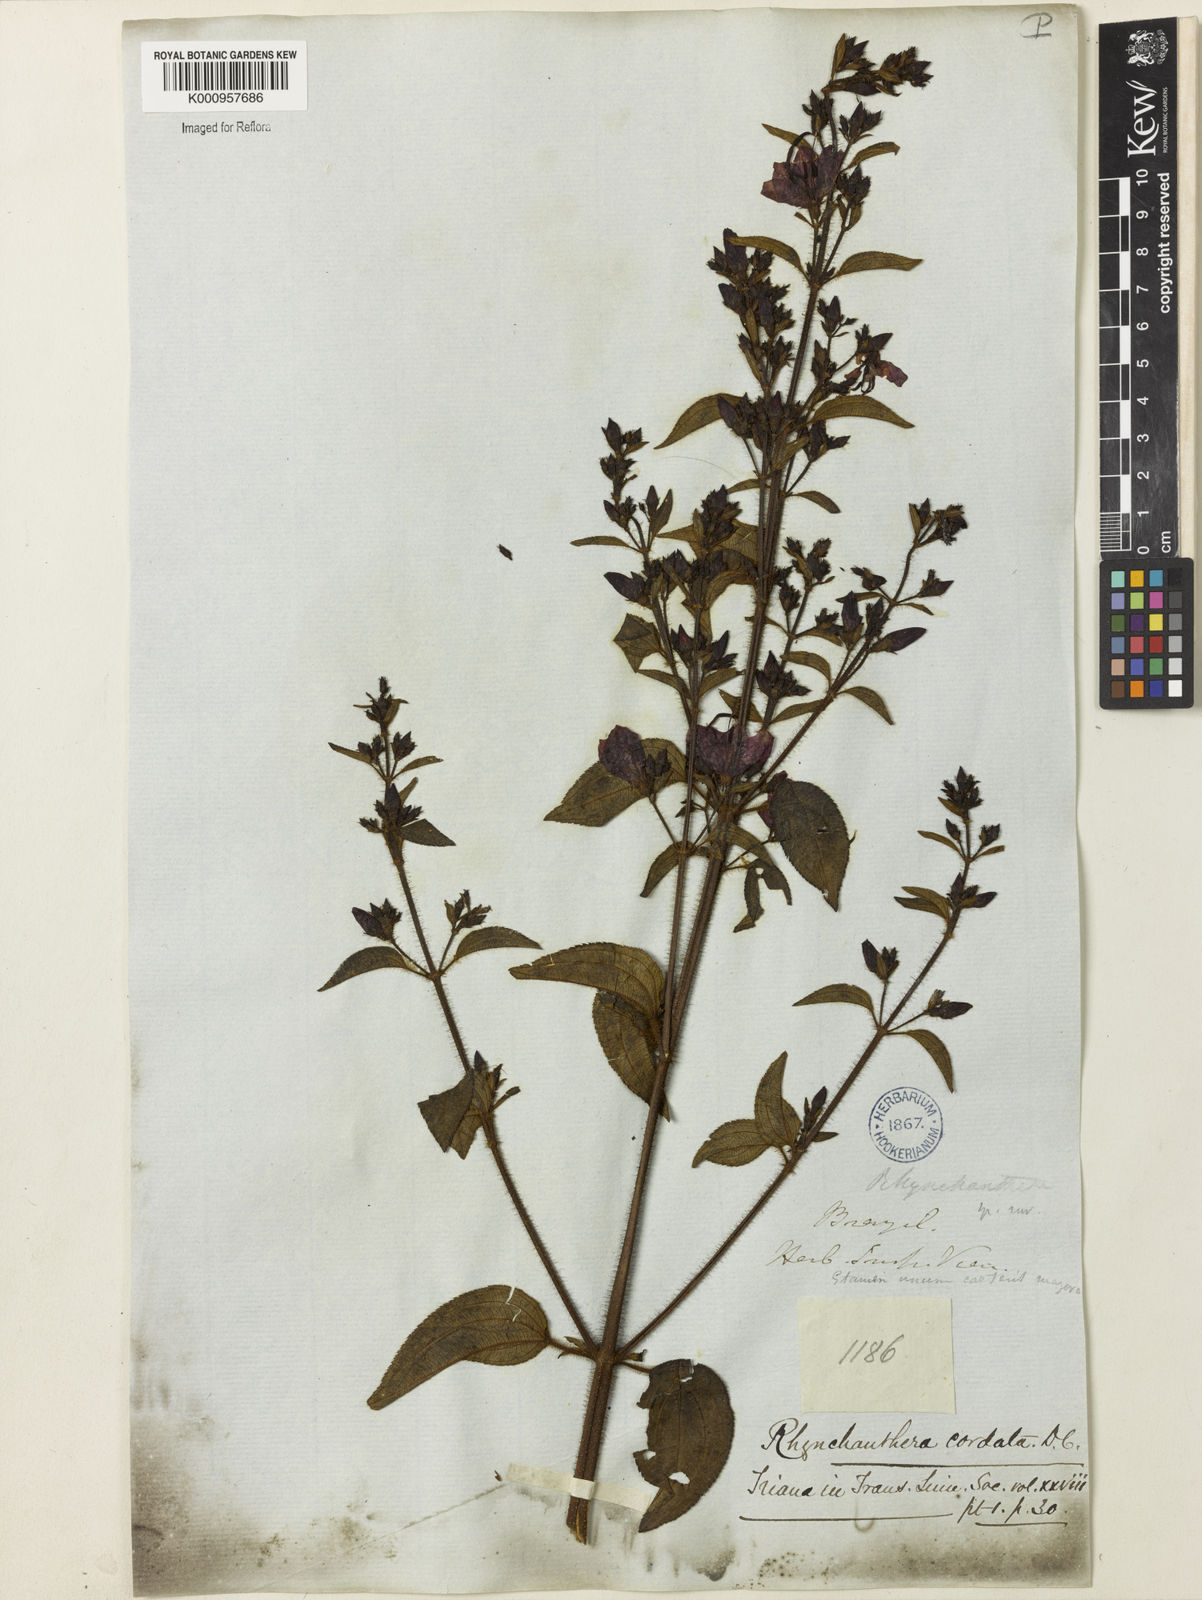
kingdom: Plantae
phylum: Tracheophyta
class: Magnoliopsida
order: Myrtales
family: Melastomataceae
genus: Rhynchanthera
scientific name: Rhynchanthera cordata
